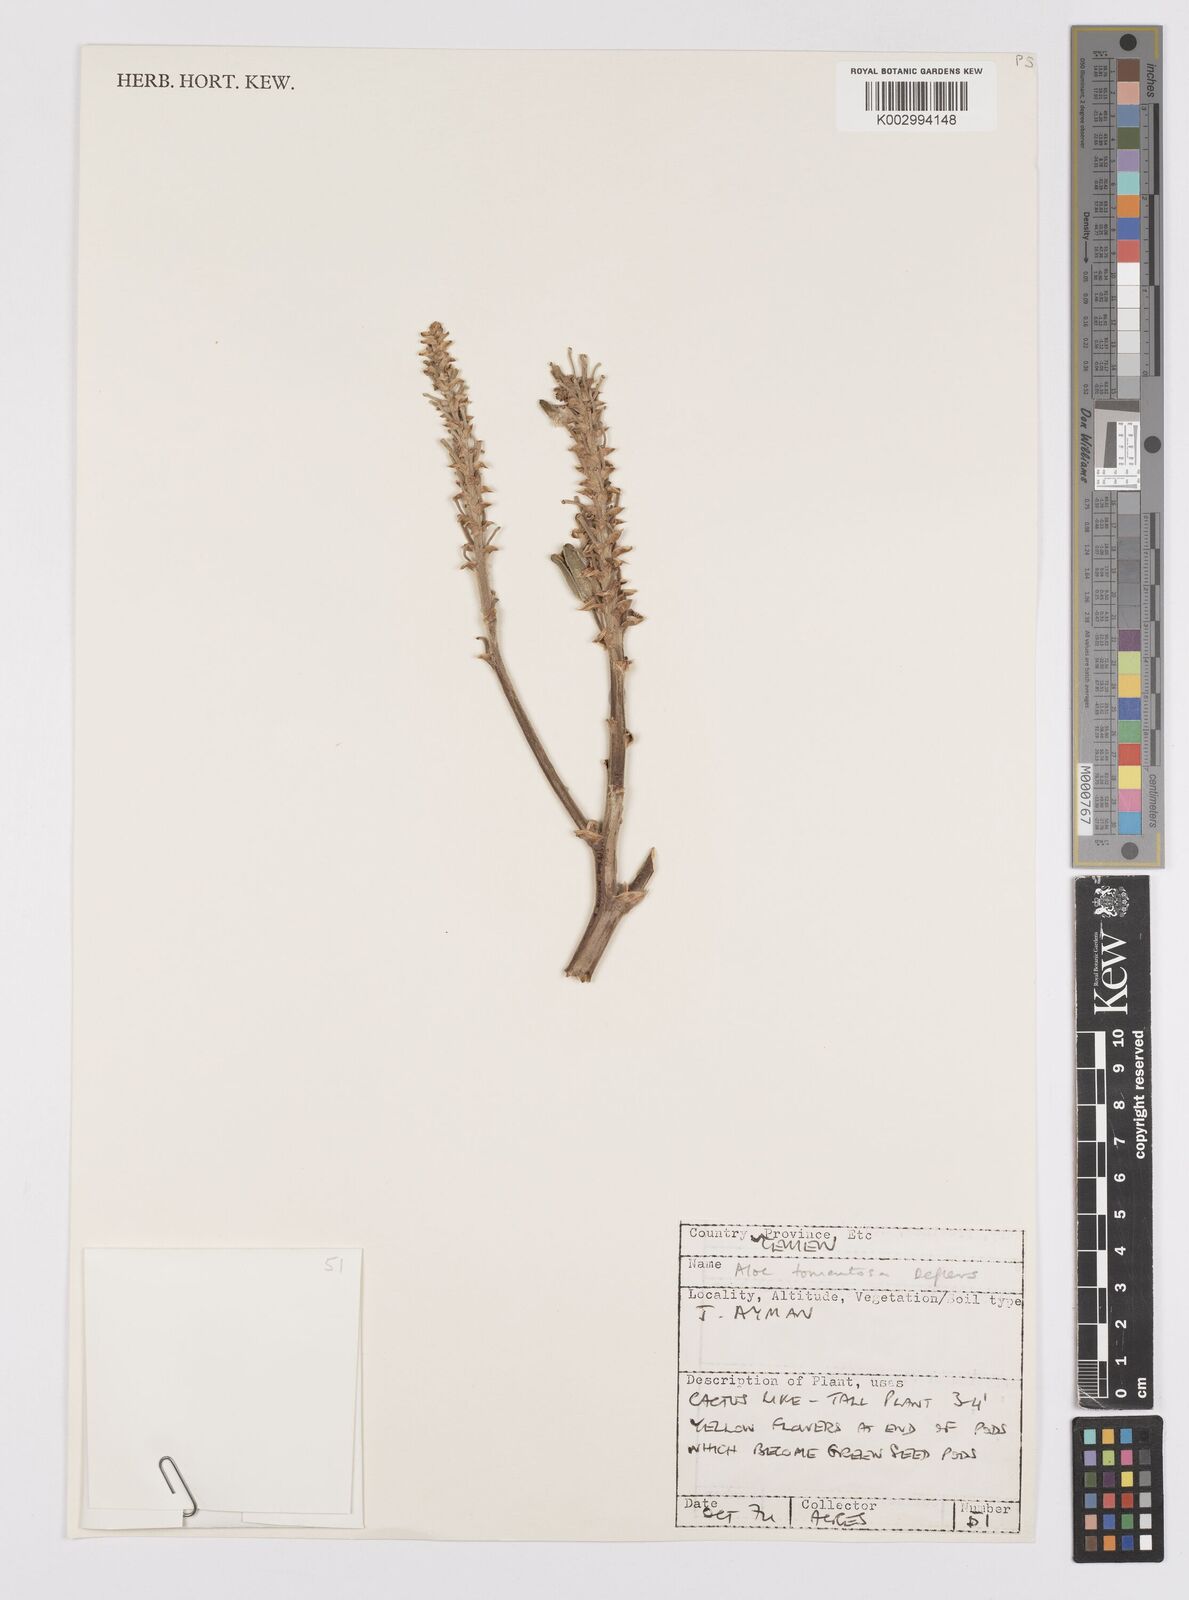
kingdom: Plantae
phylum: Tracheophyta
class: Liliopsida
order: Asparagales
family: Asphodelaceae
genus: Aloe
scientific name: Aloe tomentosa
